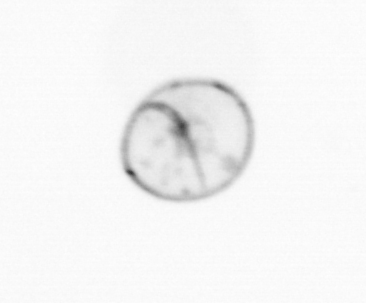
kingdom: Chromista
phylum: Myzozoa
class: Dinophyceae
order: Noctilucales
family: Noctilucaceae
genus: Noctiluca
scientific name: Noctiluca scintillans
